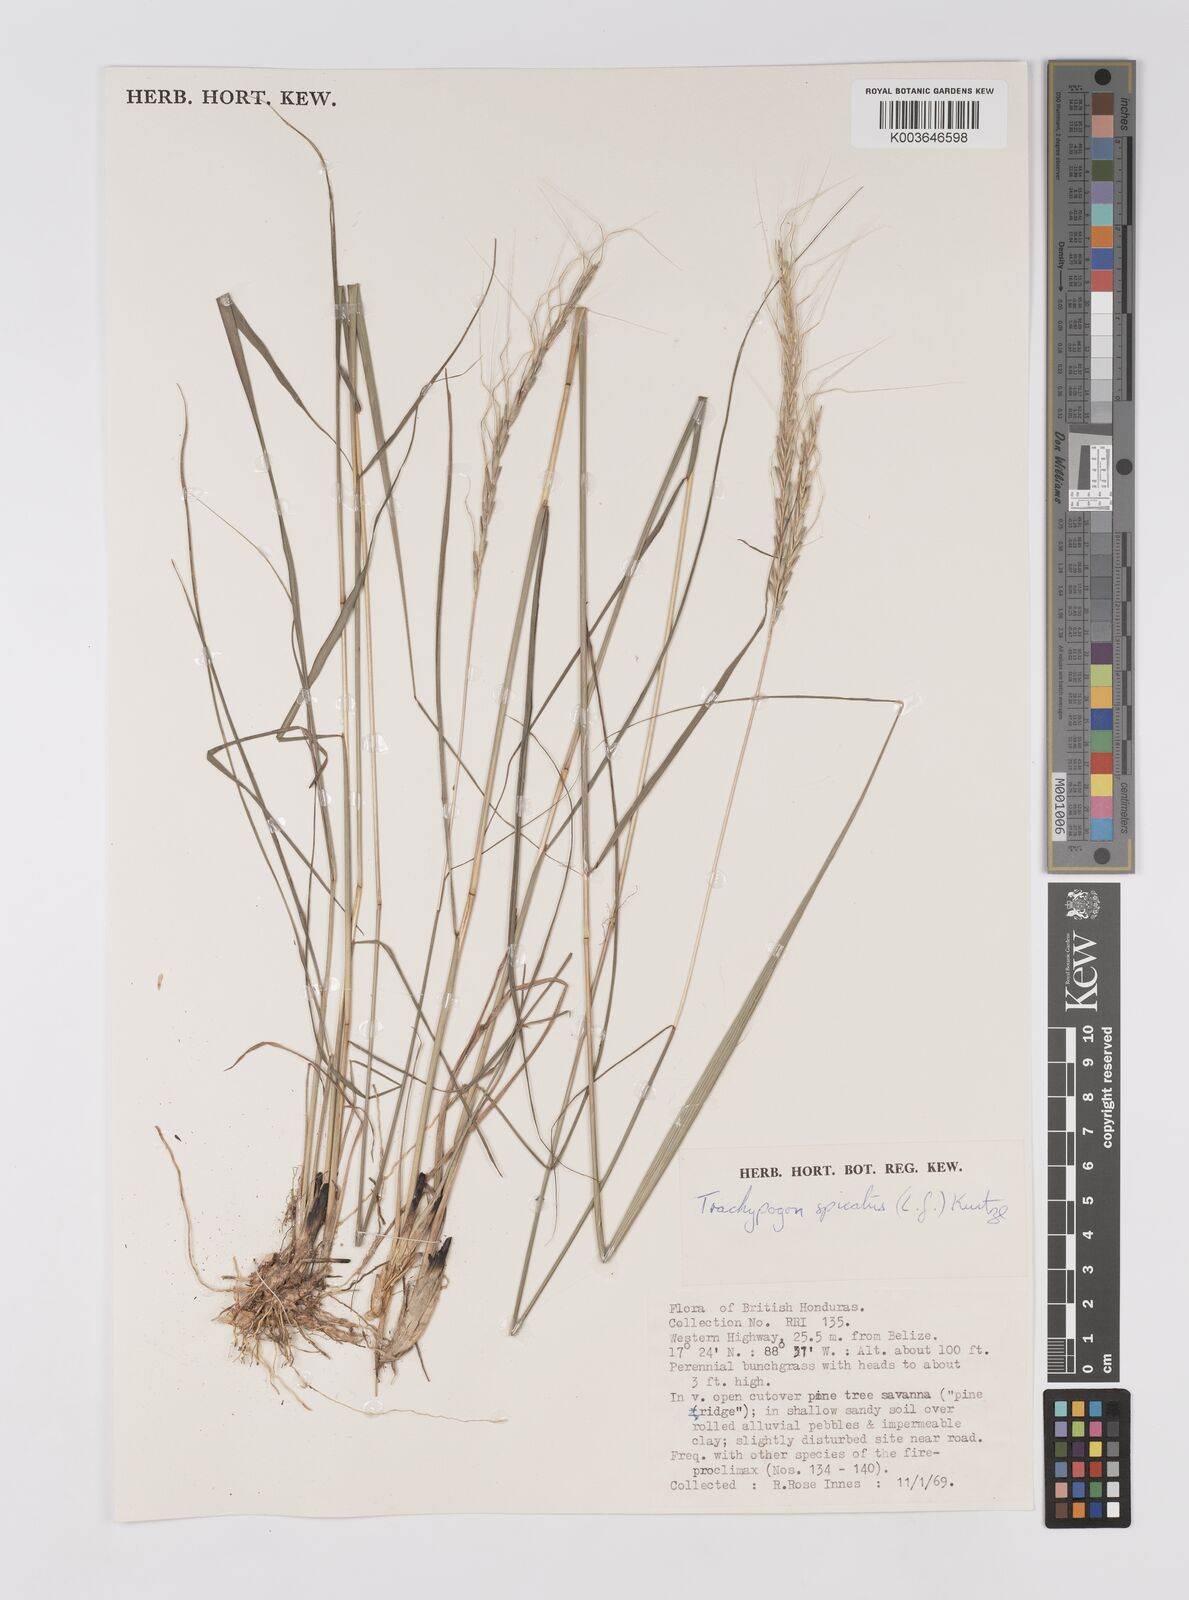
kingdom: Plantae
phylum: Tracheophyta
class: Liliopsida
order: Poales
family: Poaceae
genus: Trachypogon
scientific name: Trachypogon spicatus
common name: Crinkle-awn
